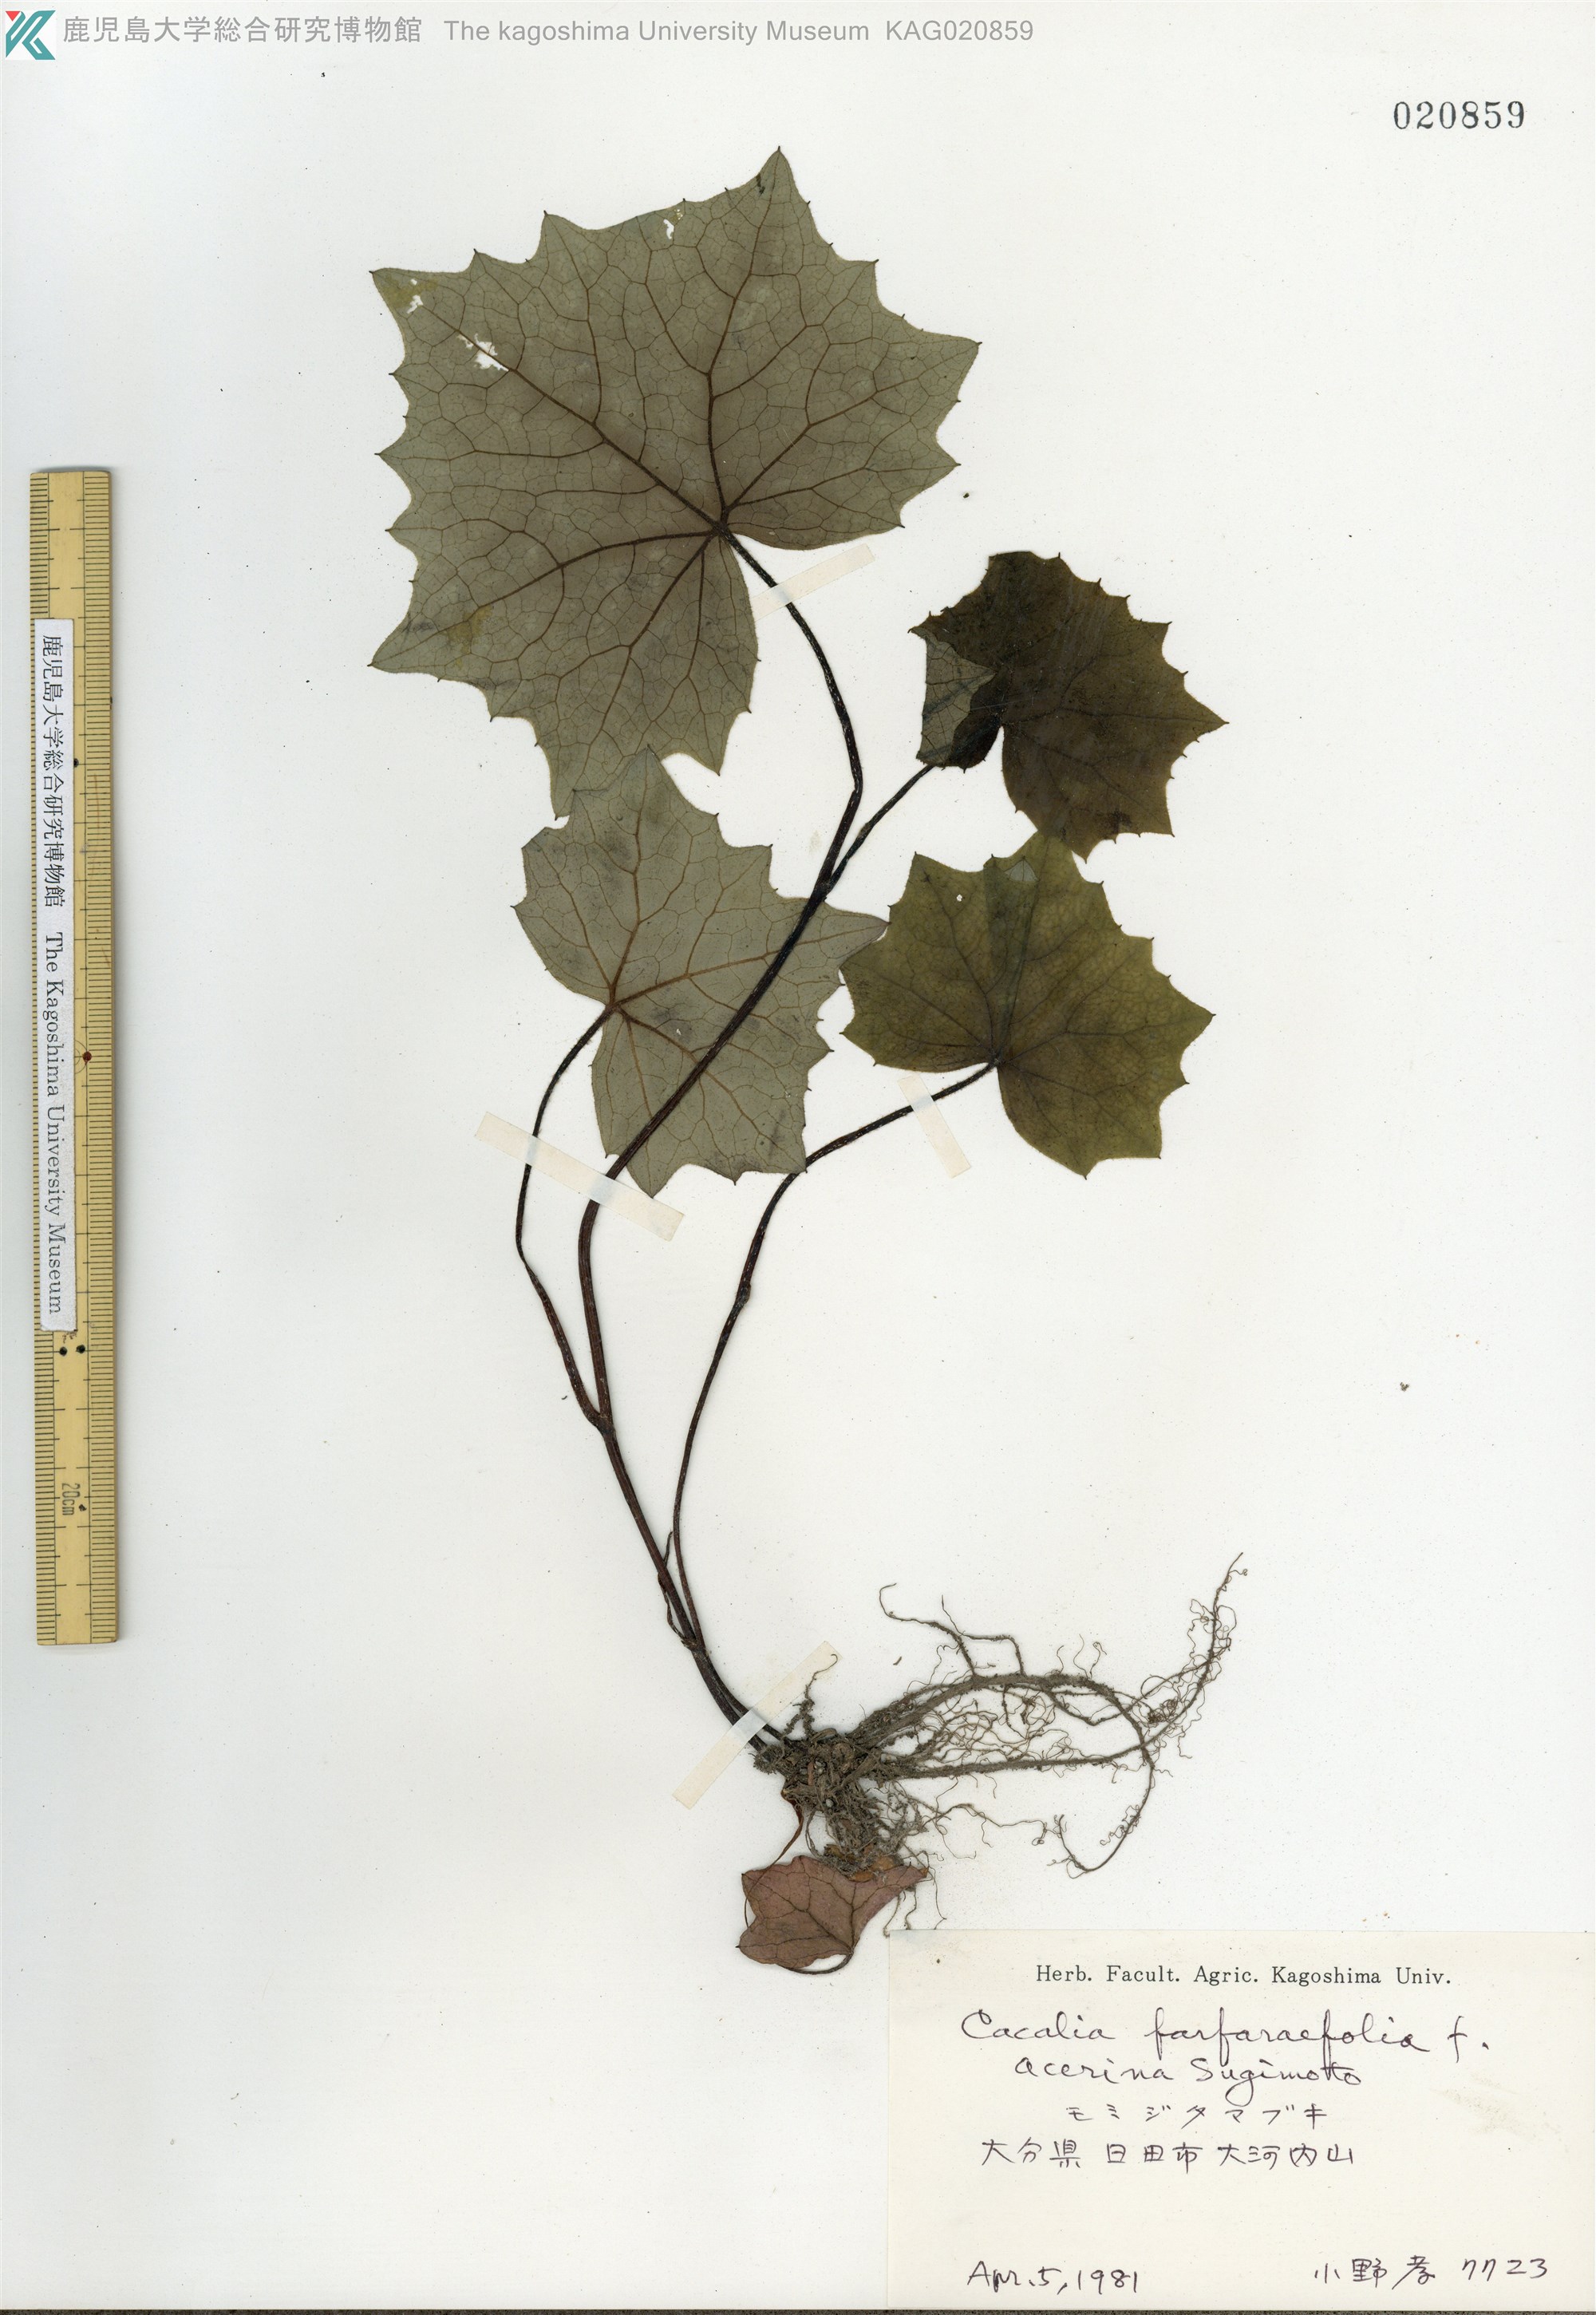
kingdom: Plantae
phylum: Tracheophyta
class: Magnoliopsida
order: Asterales
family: Asteraceae
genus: Parasenecio
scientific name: Parasenecio farfarifolius
